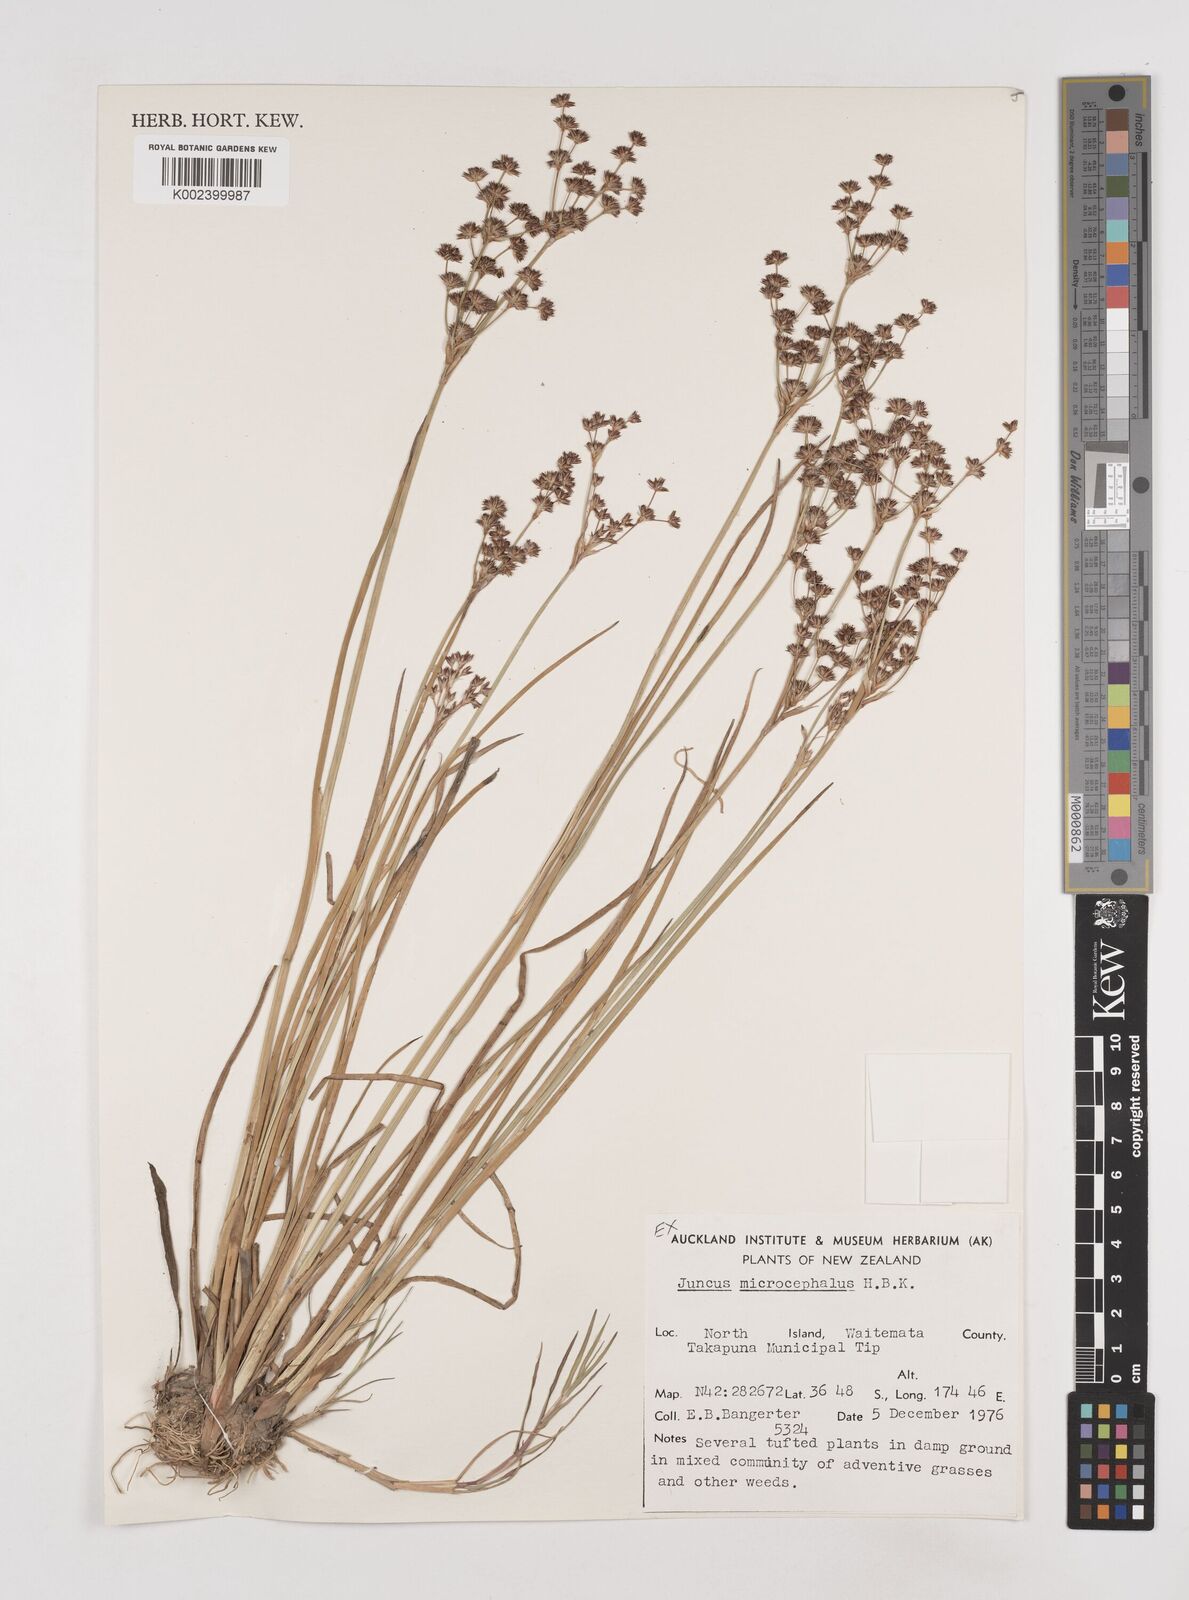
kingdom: Plantae
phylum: Tracheophyta
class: Liliopsida
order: Poales
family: Juncaceae
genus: Juncus
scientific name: Juncus microcephalus
